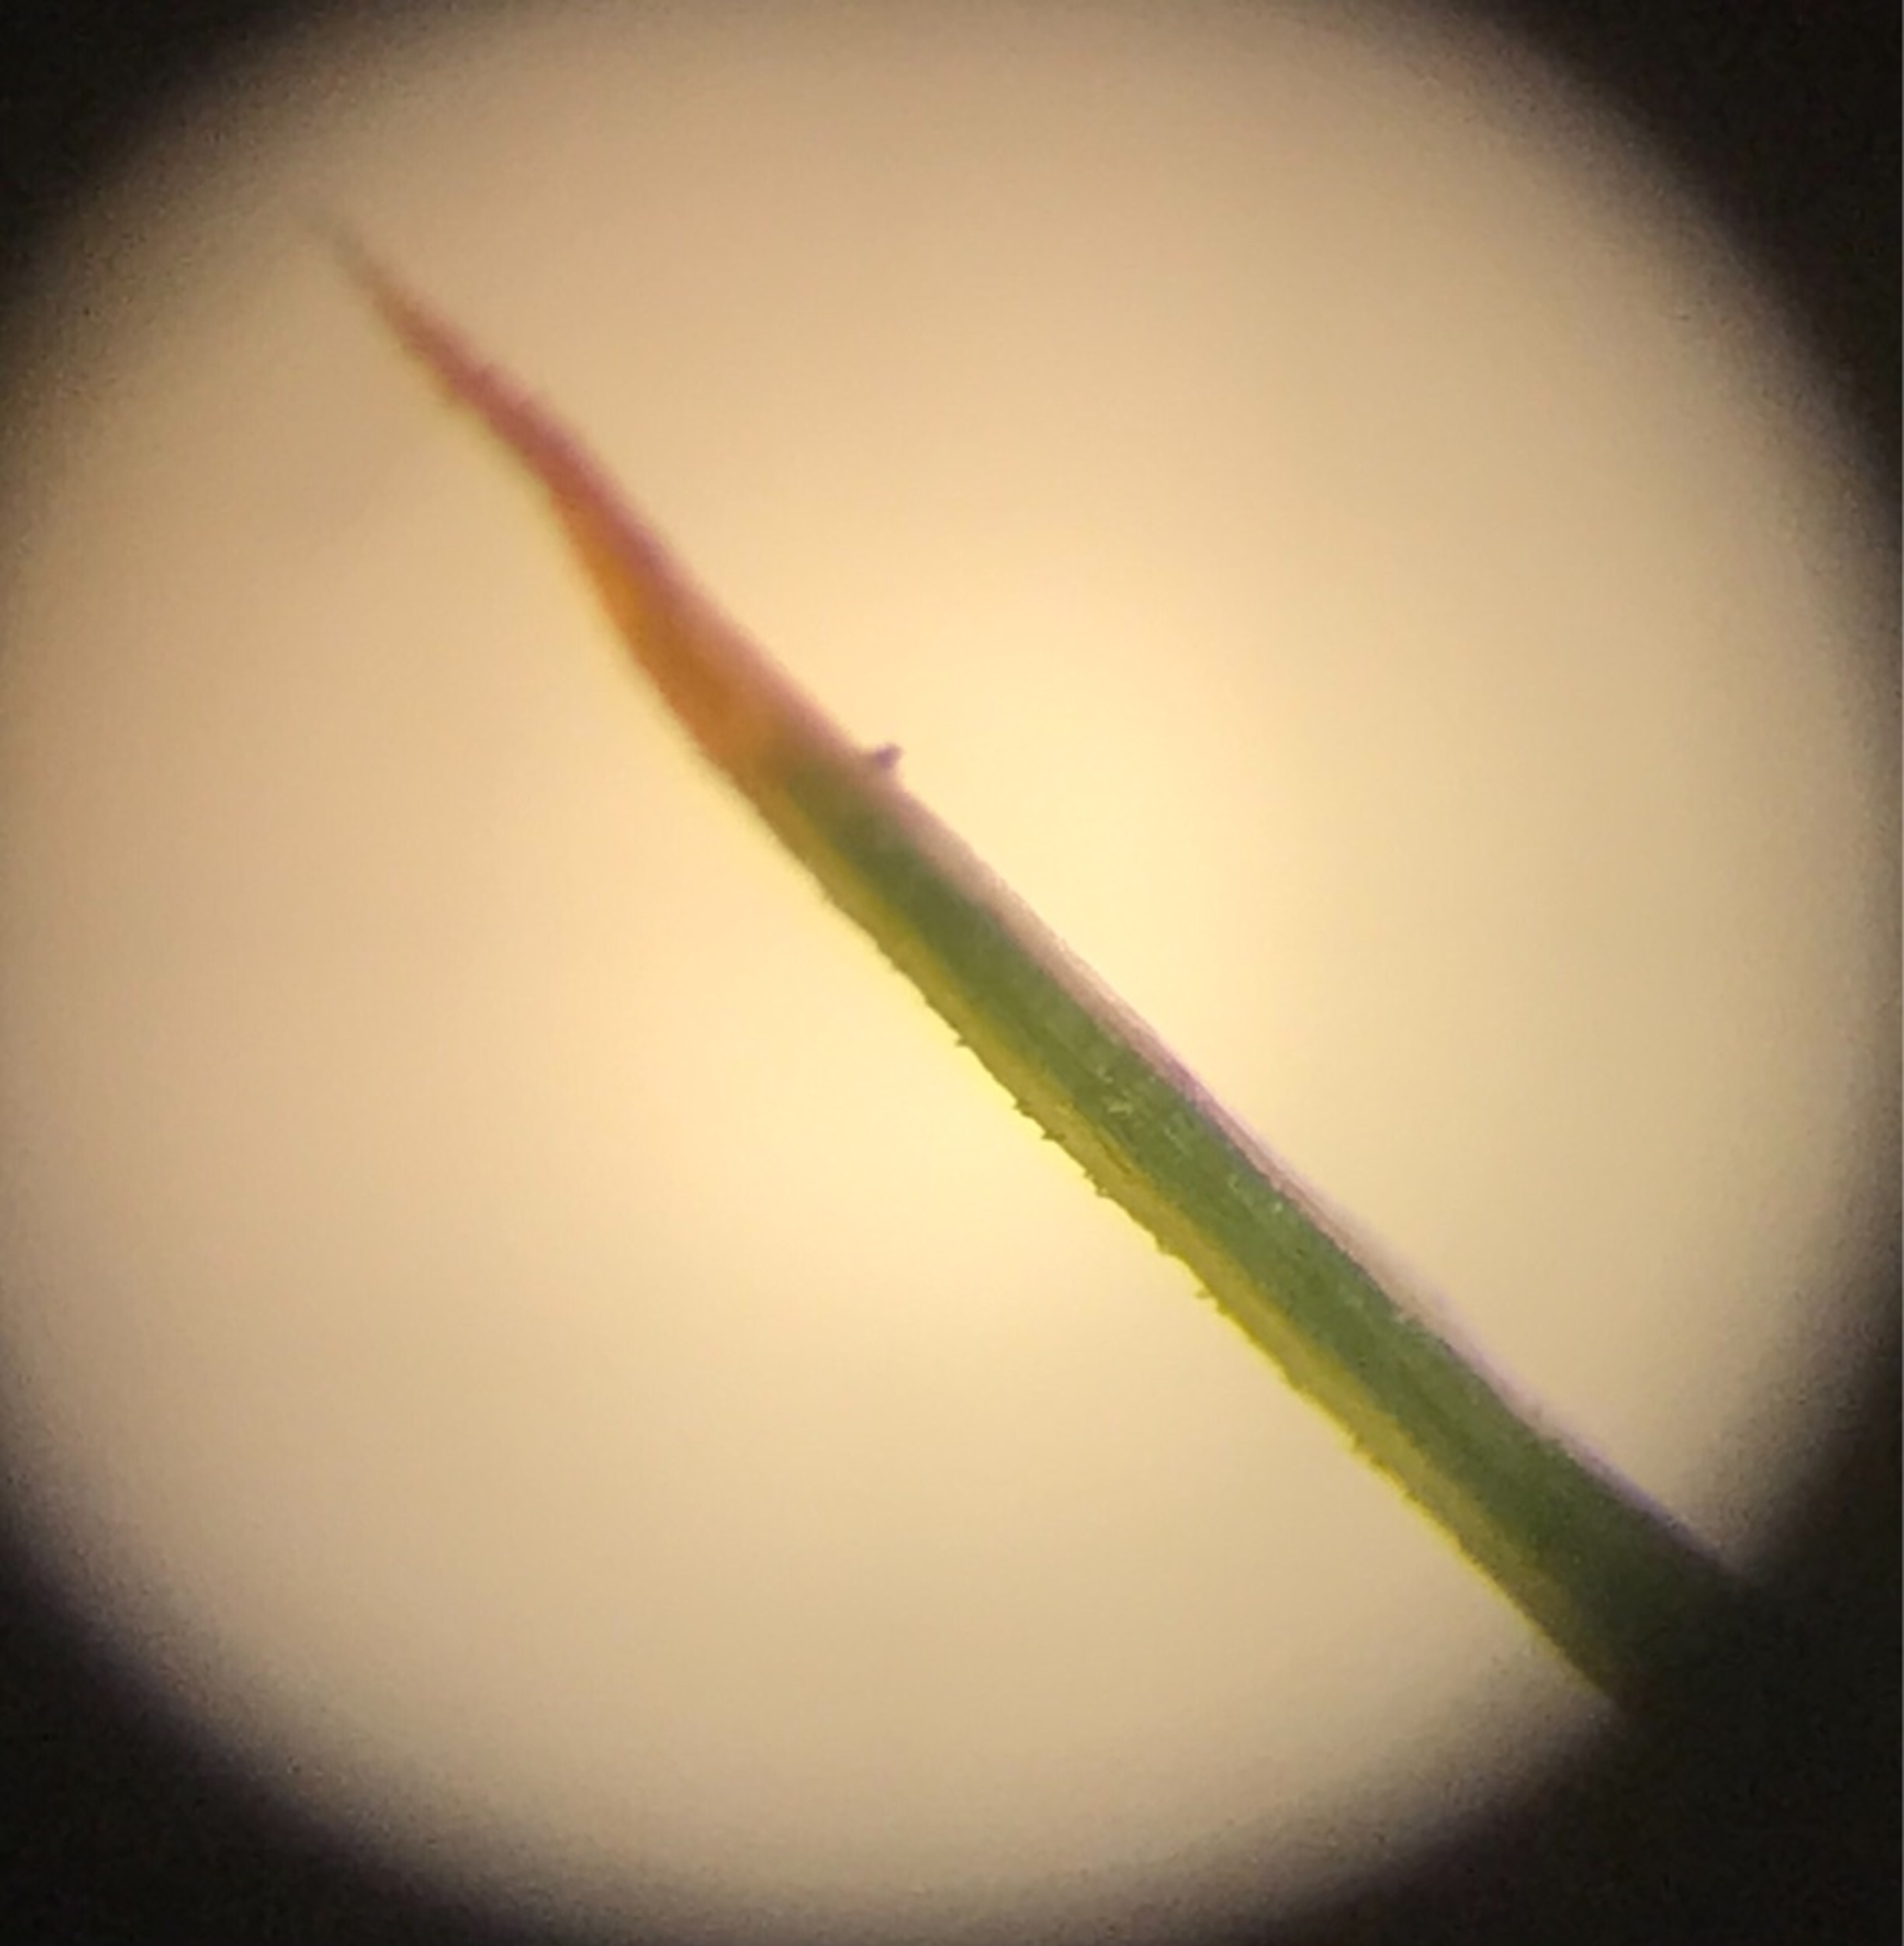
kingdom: Plantae
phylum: Bryophyta
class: Polytrichopsida
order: Polytrichales
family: Polytrichaceae
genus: Polytrichum
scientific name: Polytrichum strictum
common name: Filtstænglet jomfruhår
